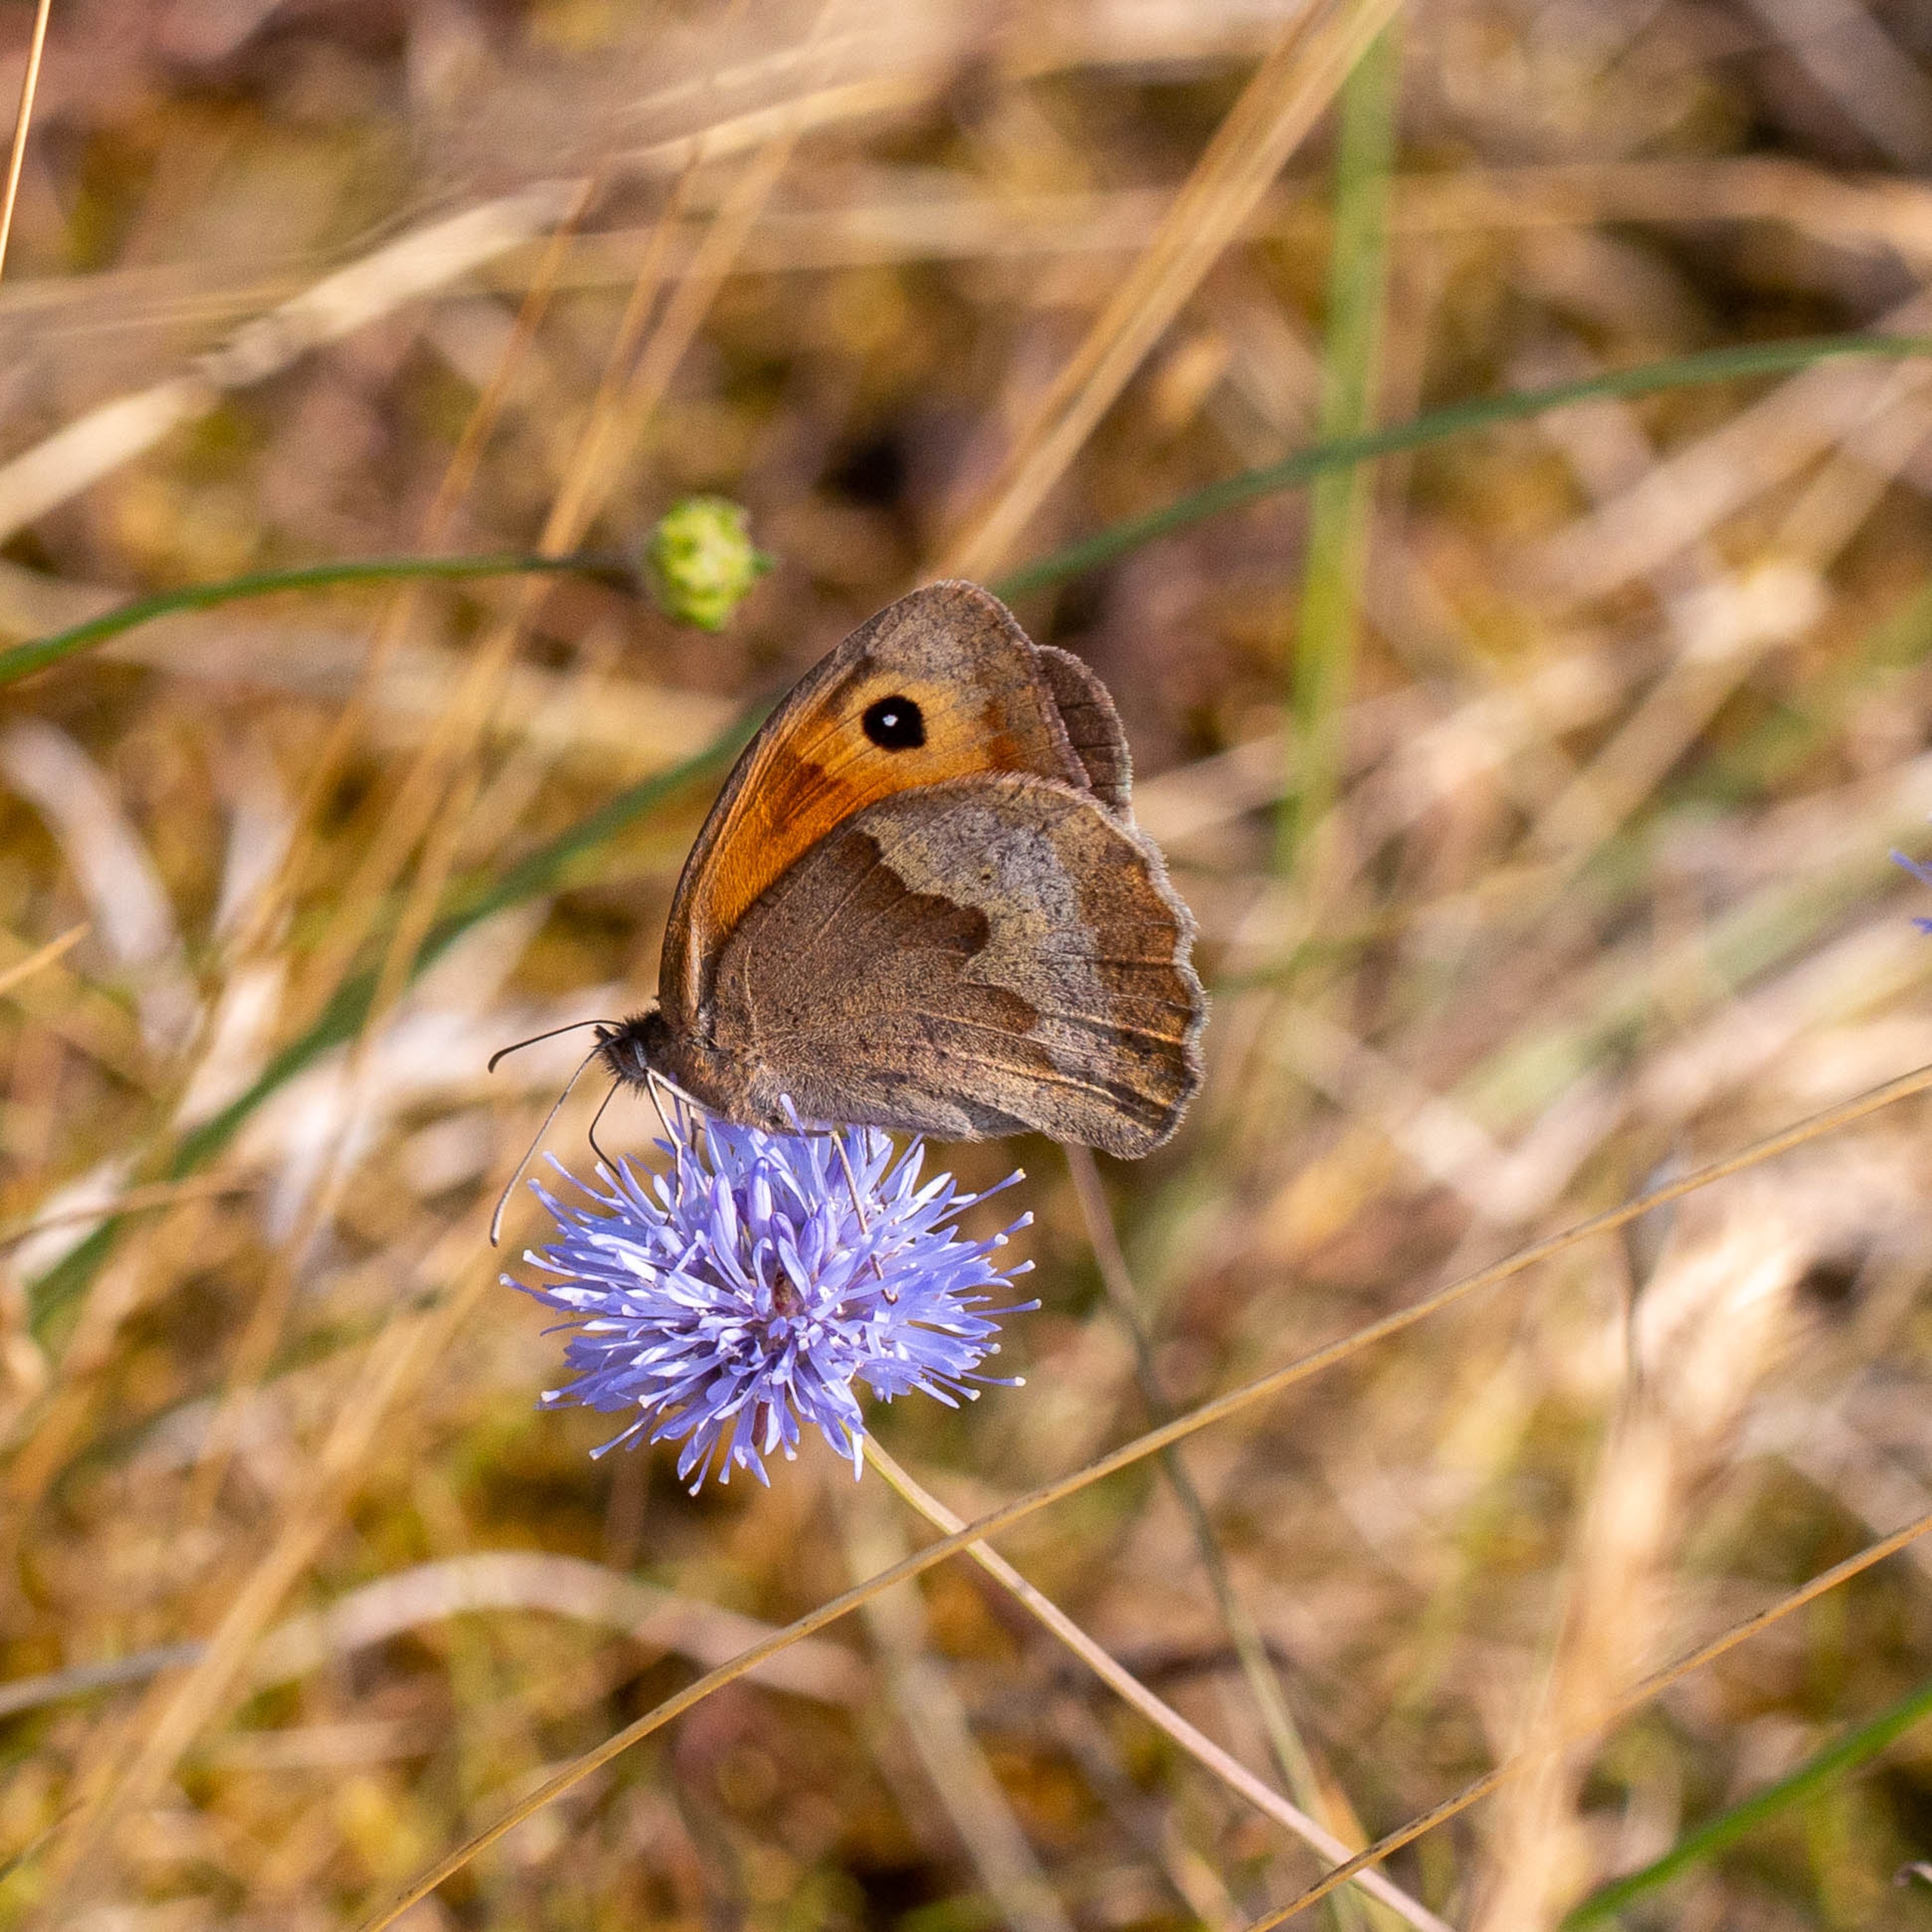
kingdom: Animalia
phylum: Arthropoda
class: Insecta
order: Lepidoptera
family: Nymphalidae
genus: Maniola
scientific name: Maniola jurtina
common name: Græsrandøje
